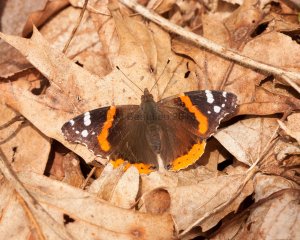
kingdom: Animalia
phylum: Arthropoda
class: Insecta
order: Lepidoptera
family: Nymphalidae
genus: Vanessa
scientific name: Vanessa atalanta
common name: Red Admiral
